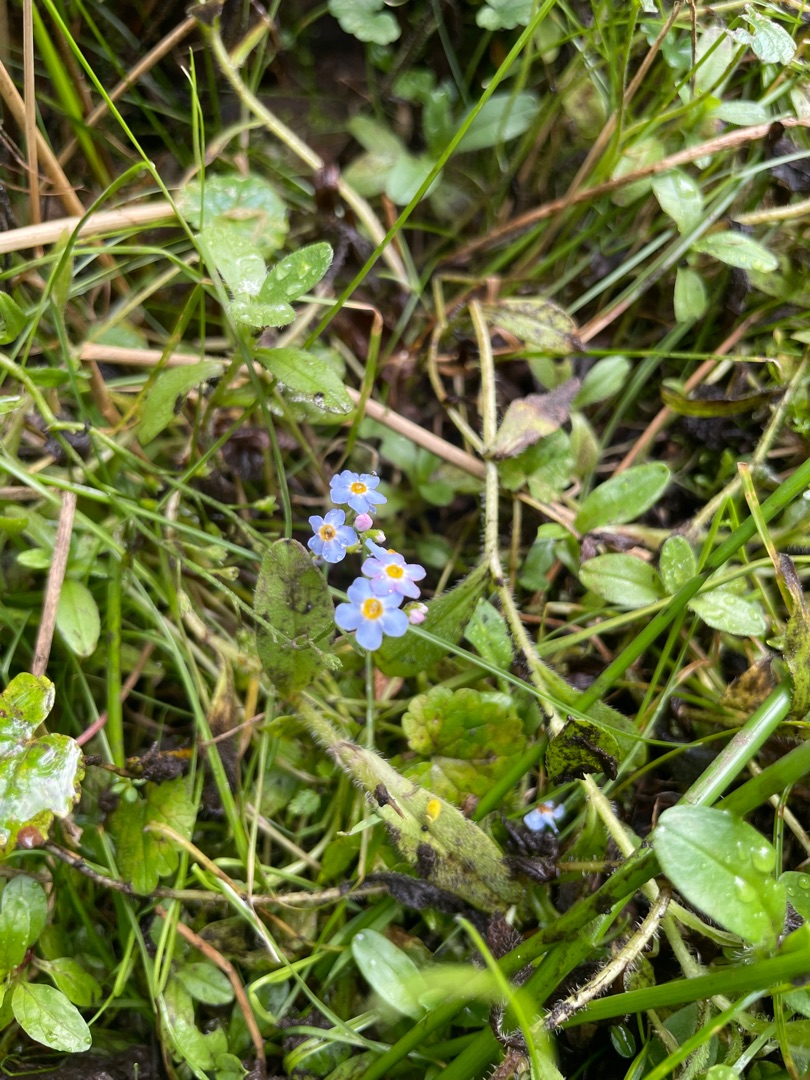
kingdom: Plantae
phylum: Tracheophyta
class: Magnoliopsida
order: Boraginales
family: Boraginaceae
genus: Myosotis
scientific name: Myosotis scorpioides
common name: Eng-forglemmigej
